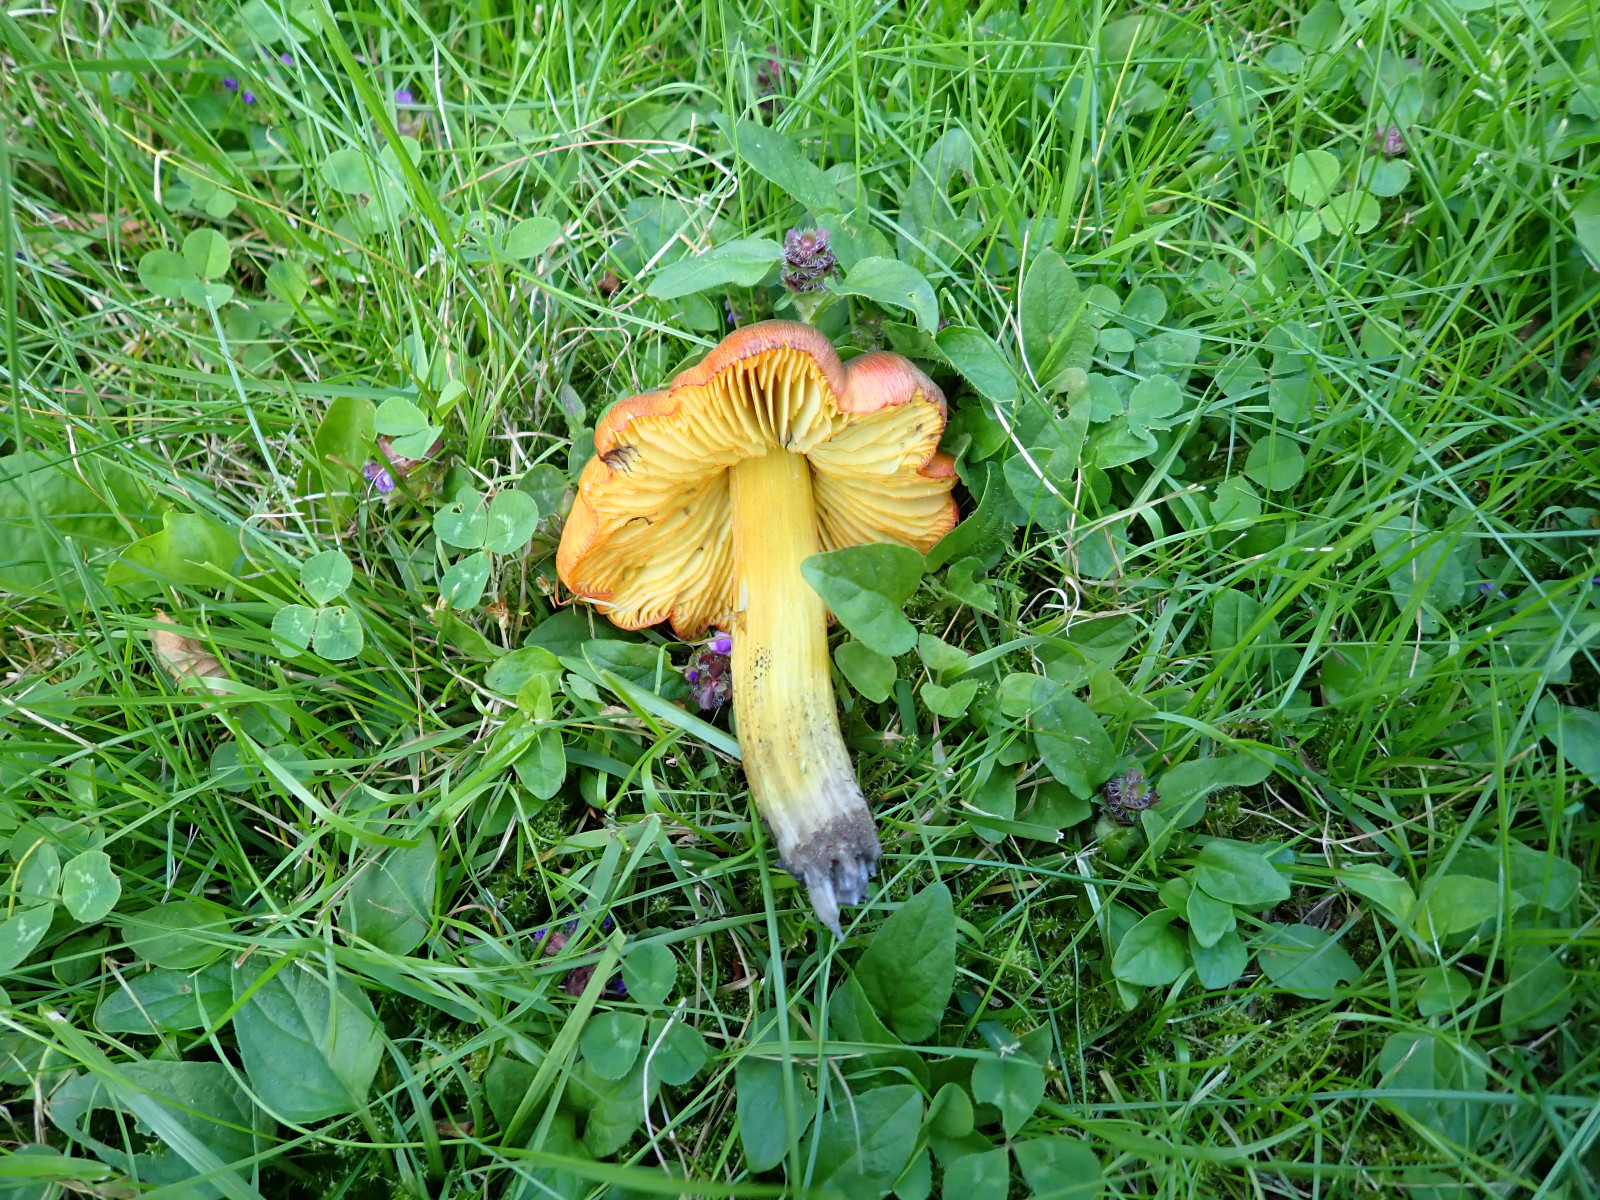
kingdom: Fungi
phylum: Basidiomycota
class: Agaricomycetes
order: Agaricales
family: Hygrophoraceae
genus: Hygrocybe
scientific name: Hygrocybe conica
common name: kegle-vokshat
